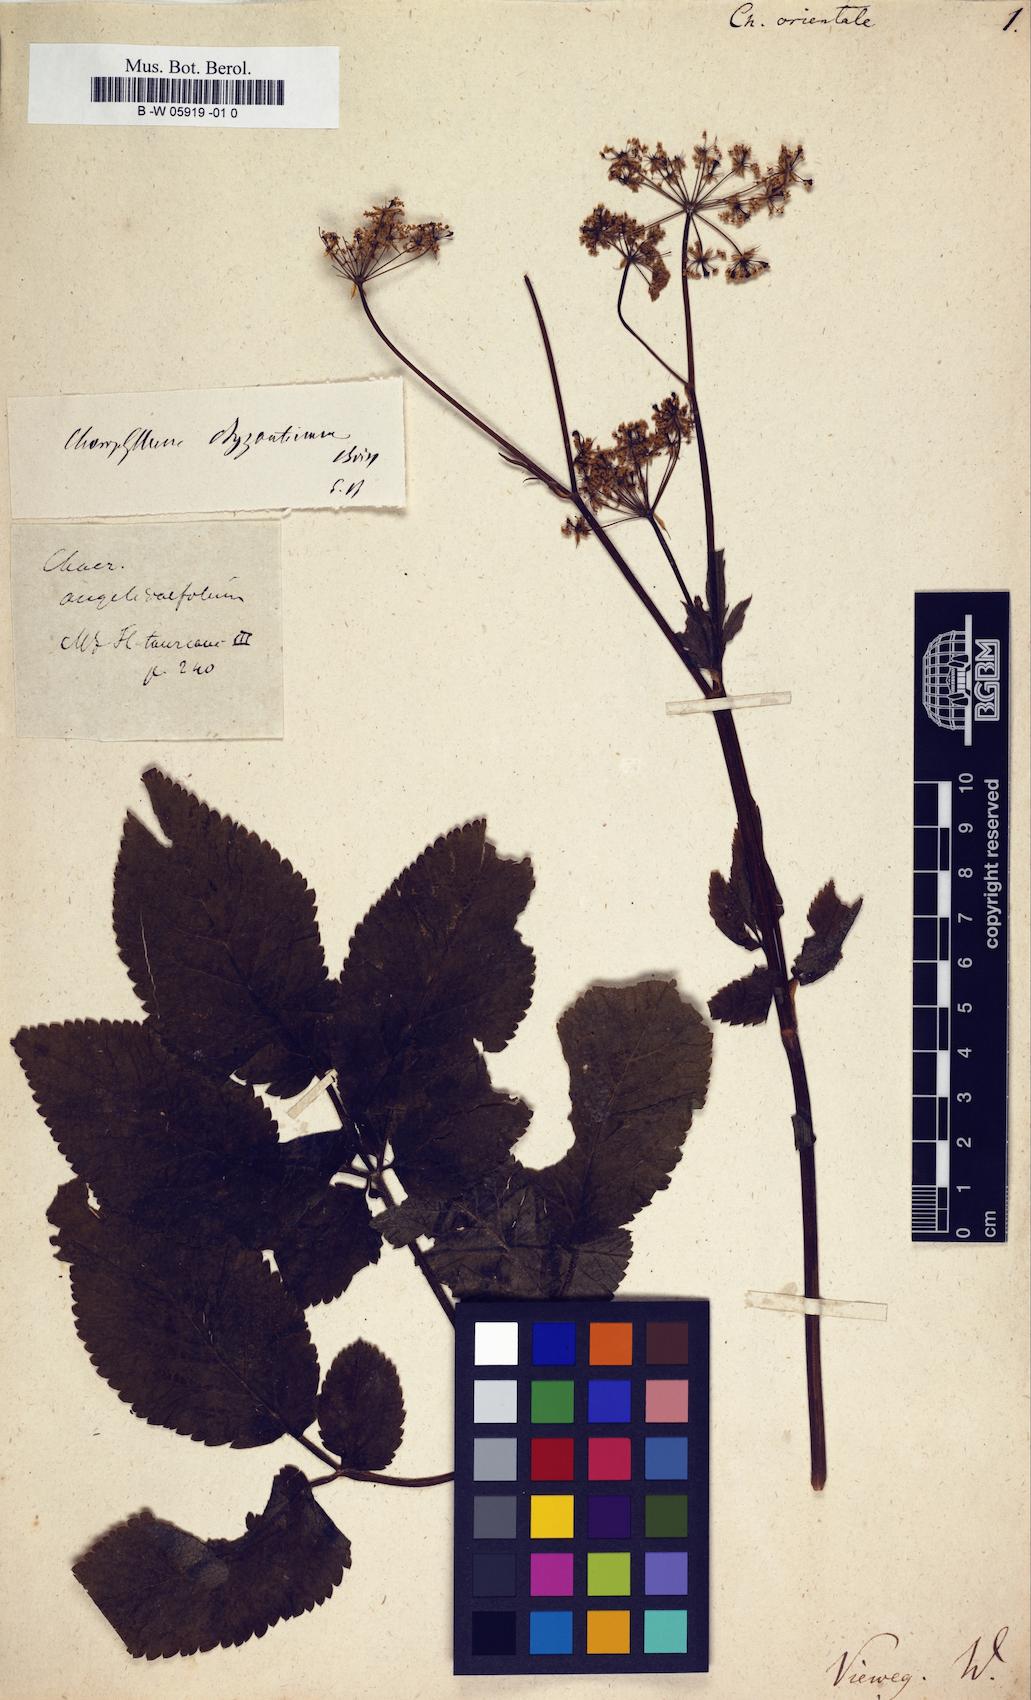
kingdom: Plantae
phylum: Tracheophyta
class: Magnoliopsida
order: Apiales
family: Apiaceae
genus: Chaerophyllum
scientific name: Chaerophyllum byzantinum
